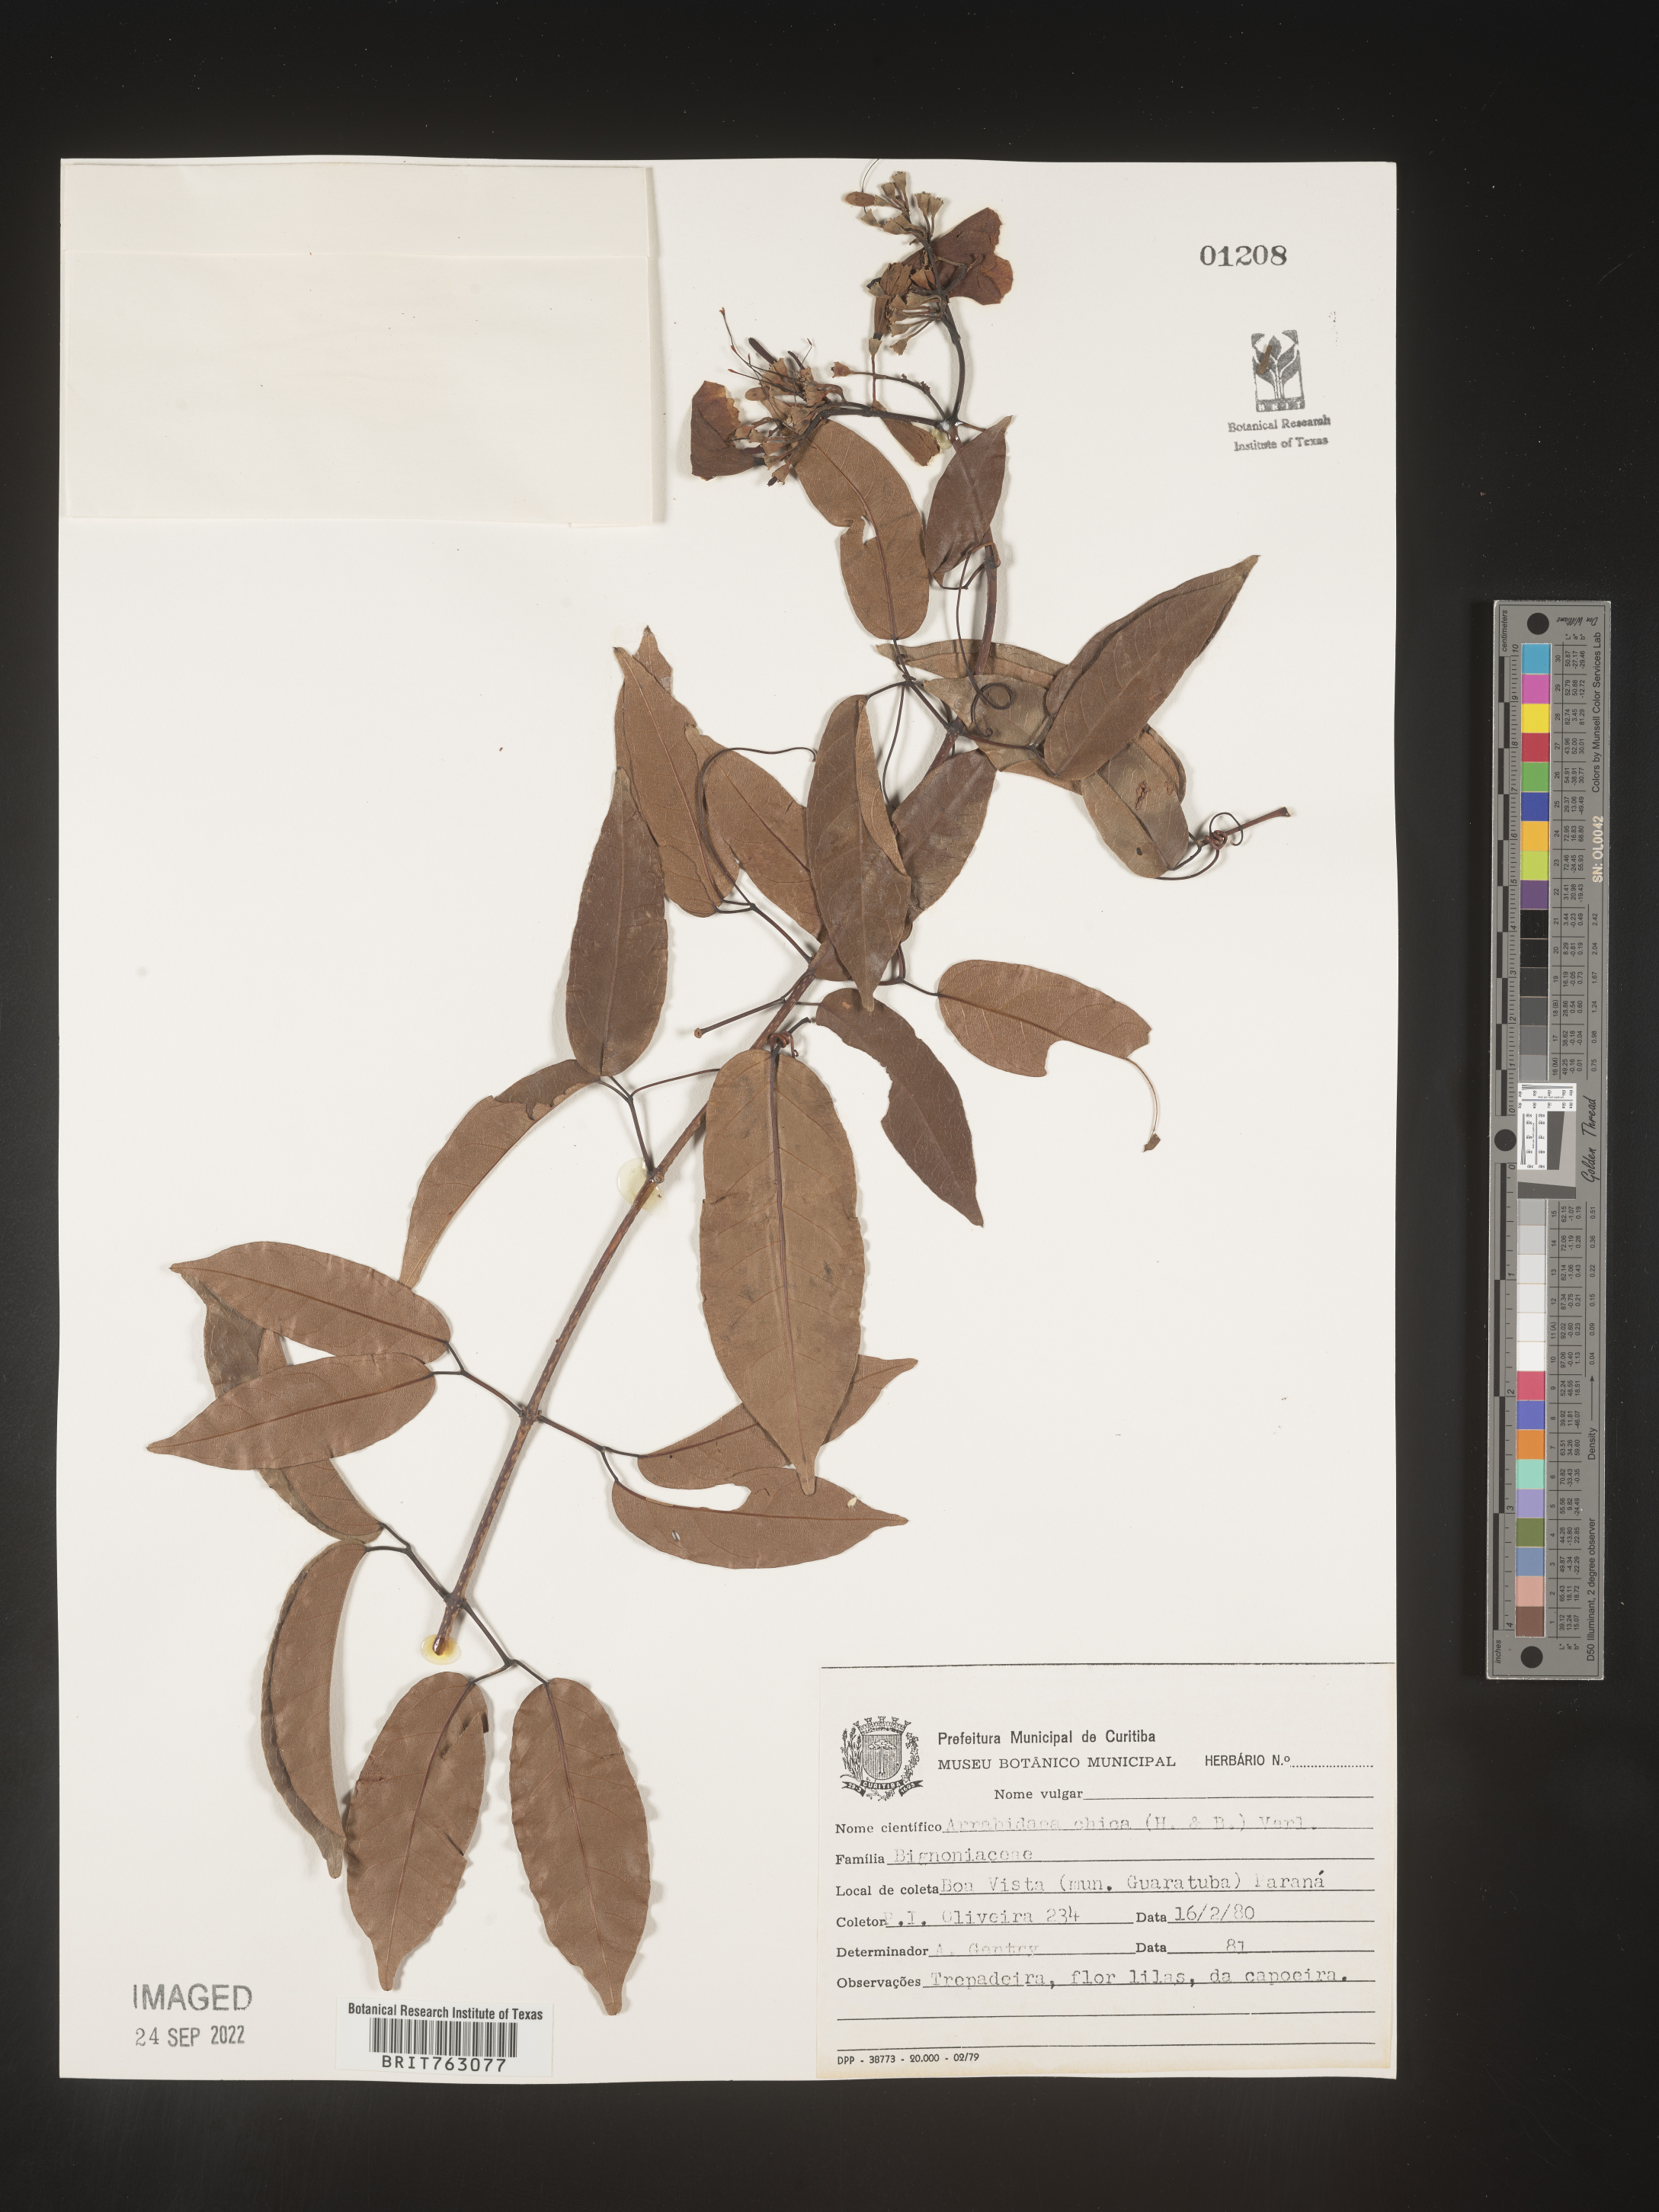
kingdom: Plantae
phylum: Tracheophyta
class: Magnoliopsida
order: Rosales
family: Rhamnaceae
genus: Arrabidaea
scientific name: Arrabidaea
